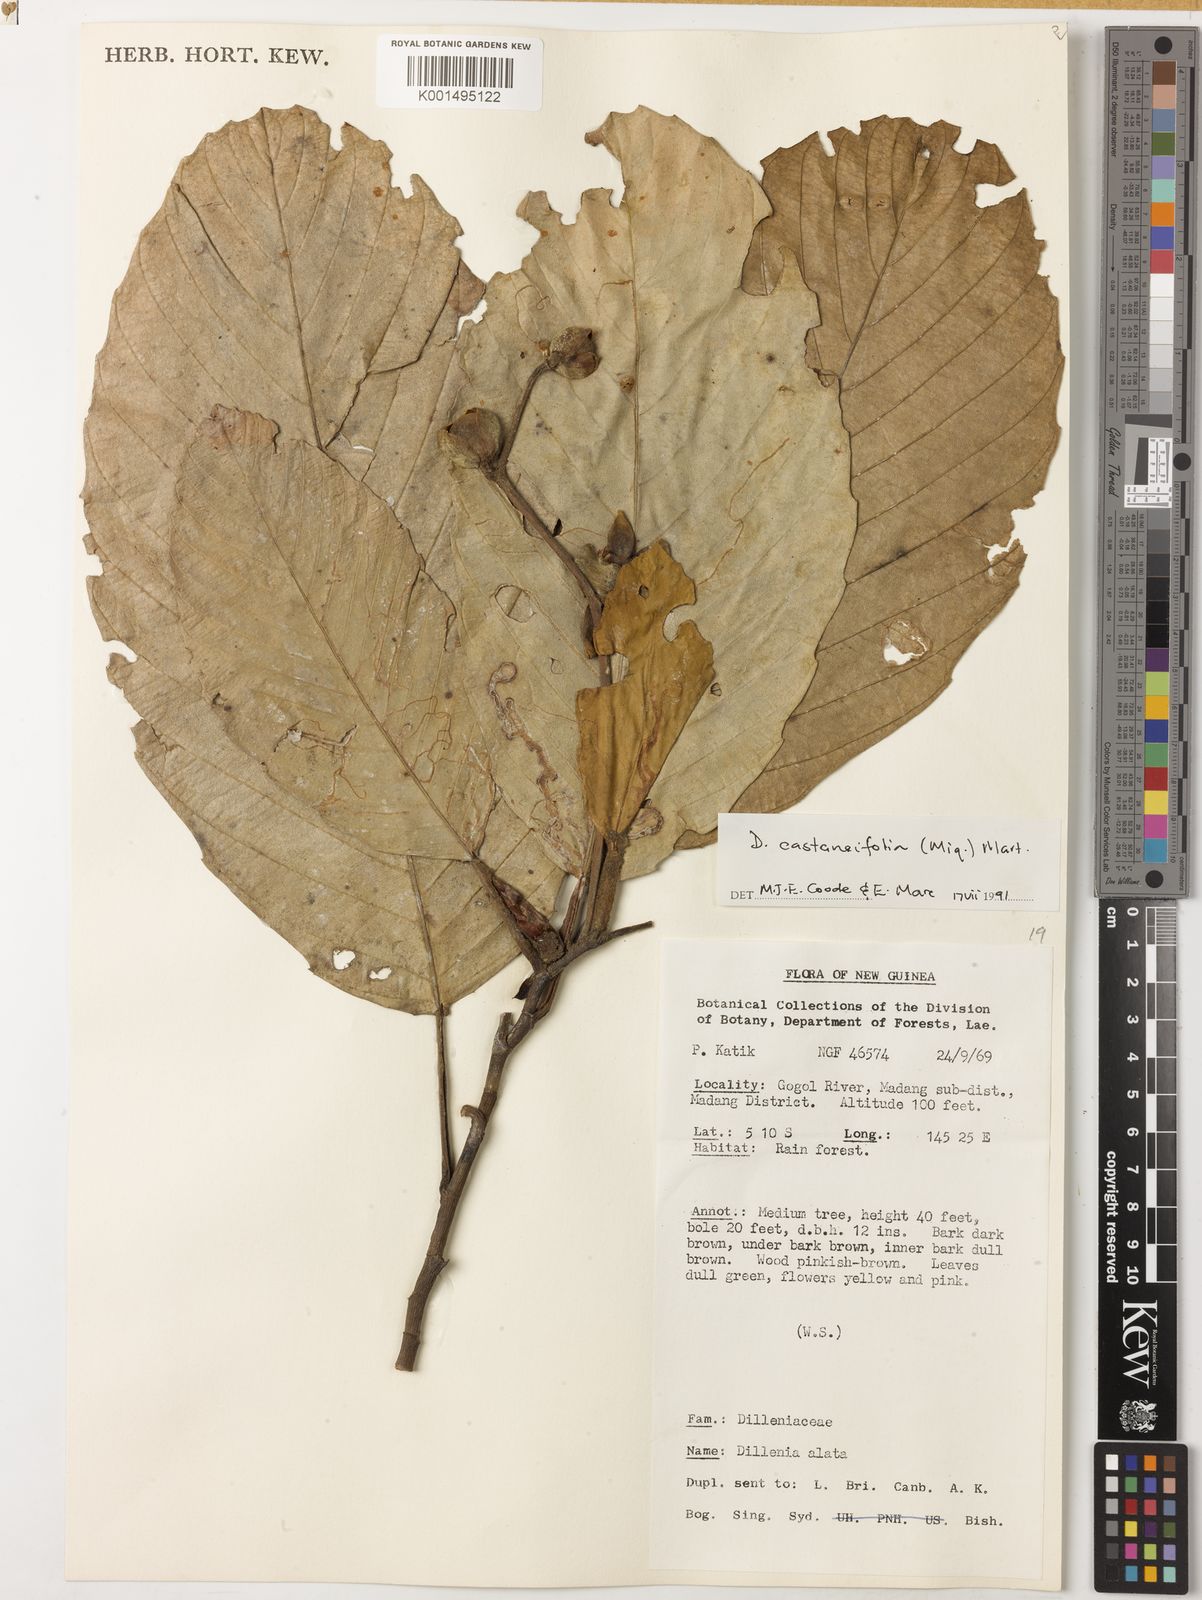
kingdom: Plantae
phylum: Tracheophyta
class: Magnoliopsida
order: Dilleniales
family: Dilleniaceae
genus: Dillenia
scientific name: Dillenia castaneifolia
